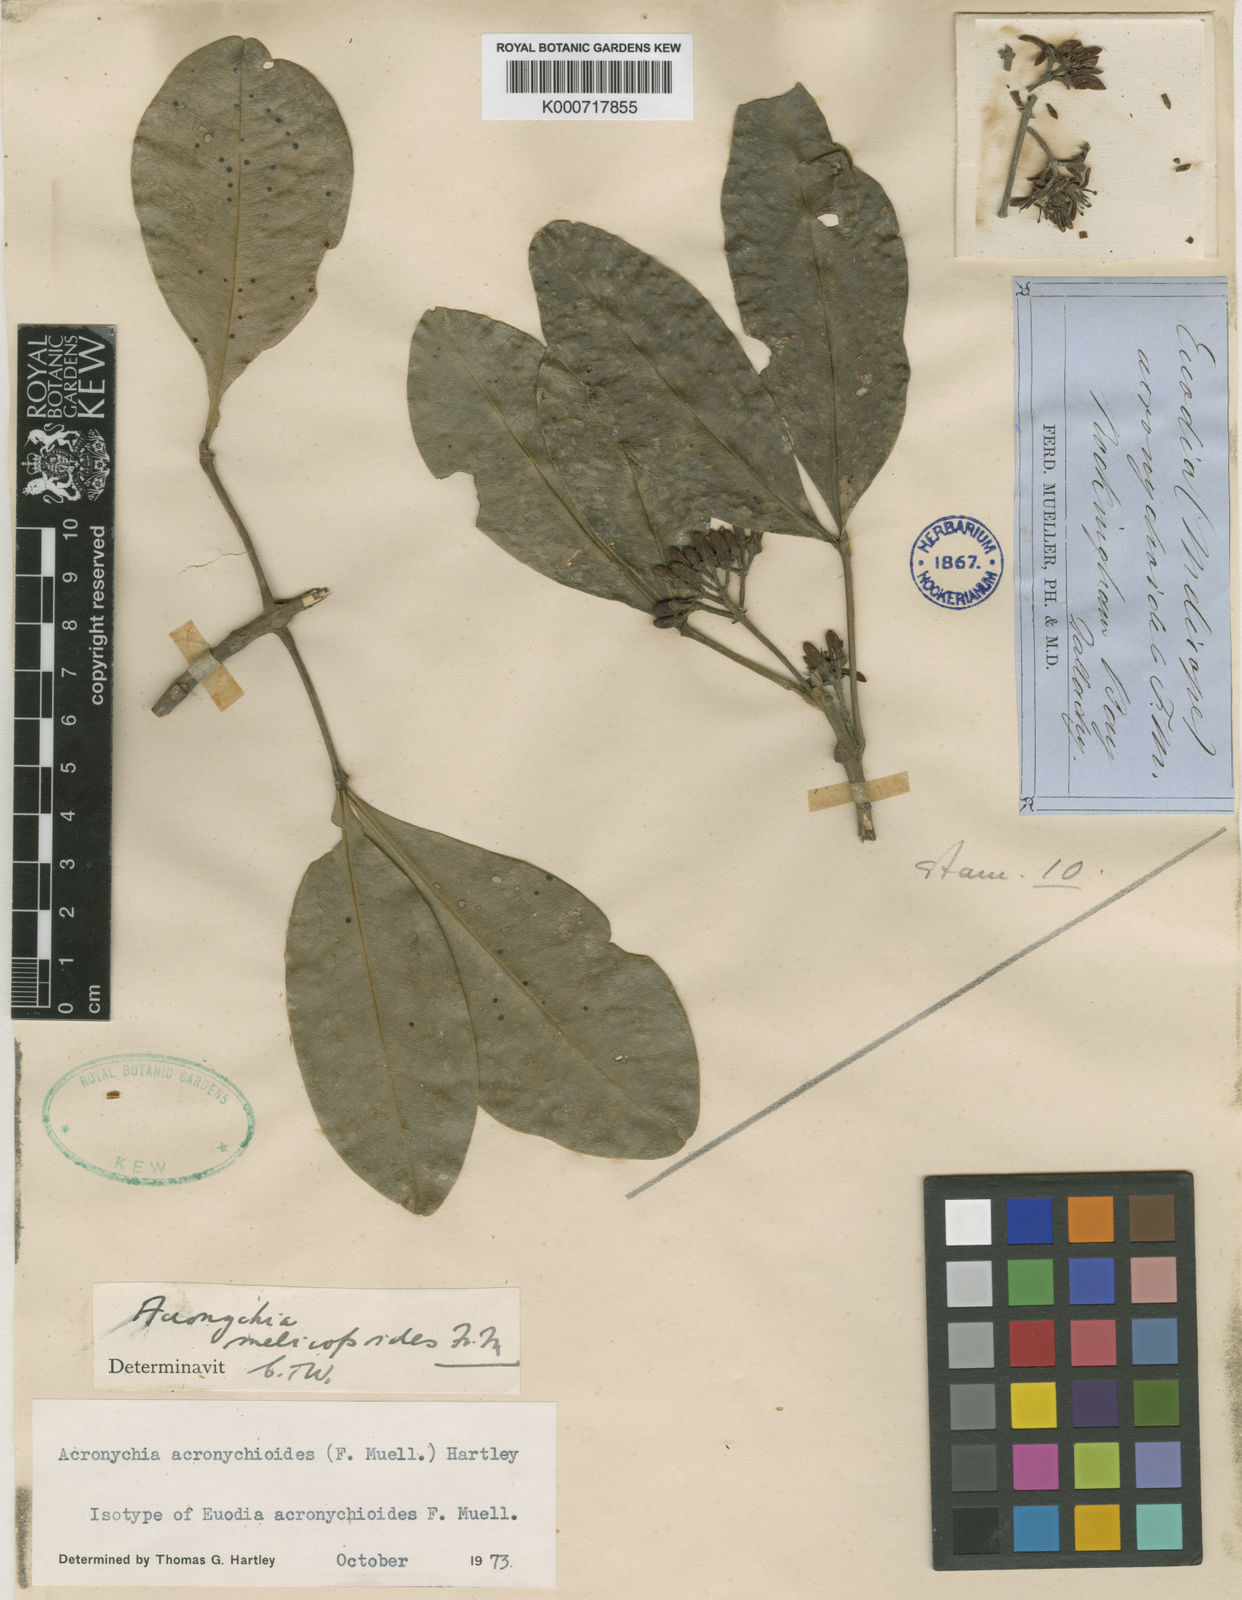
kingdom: Plantae
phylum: Tracheophyta
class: Magnoliopsida
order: Sapindales
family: Rutaceae
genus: Acronychia
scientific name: Acronychia acronychioides
